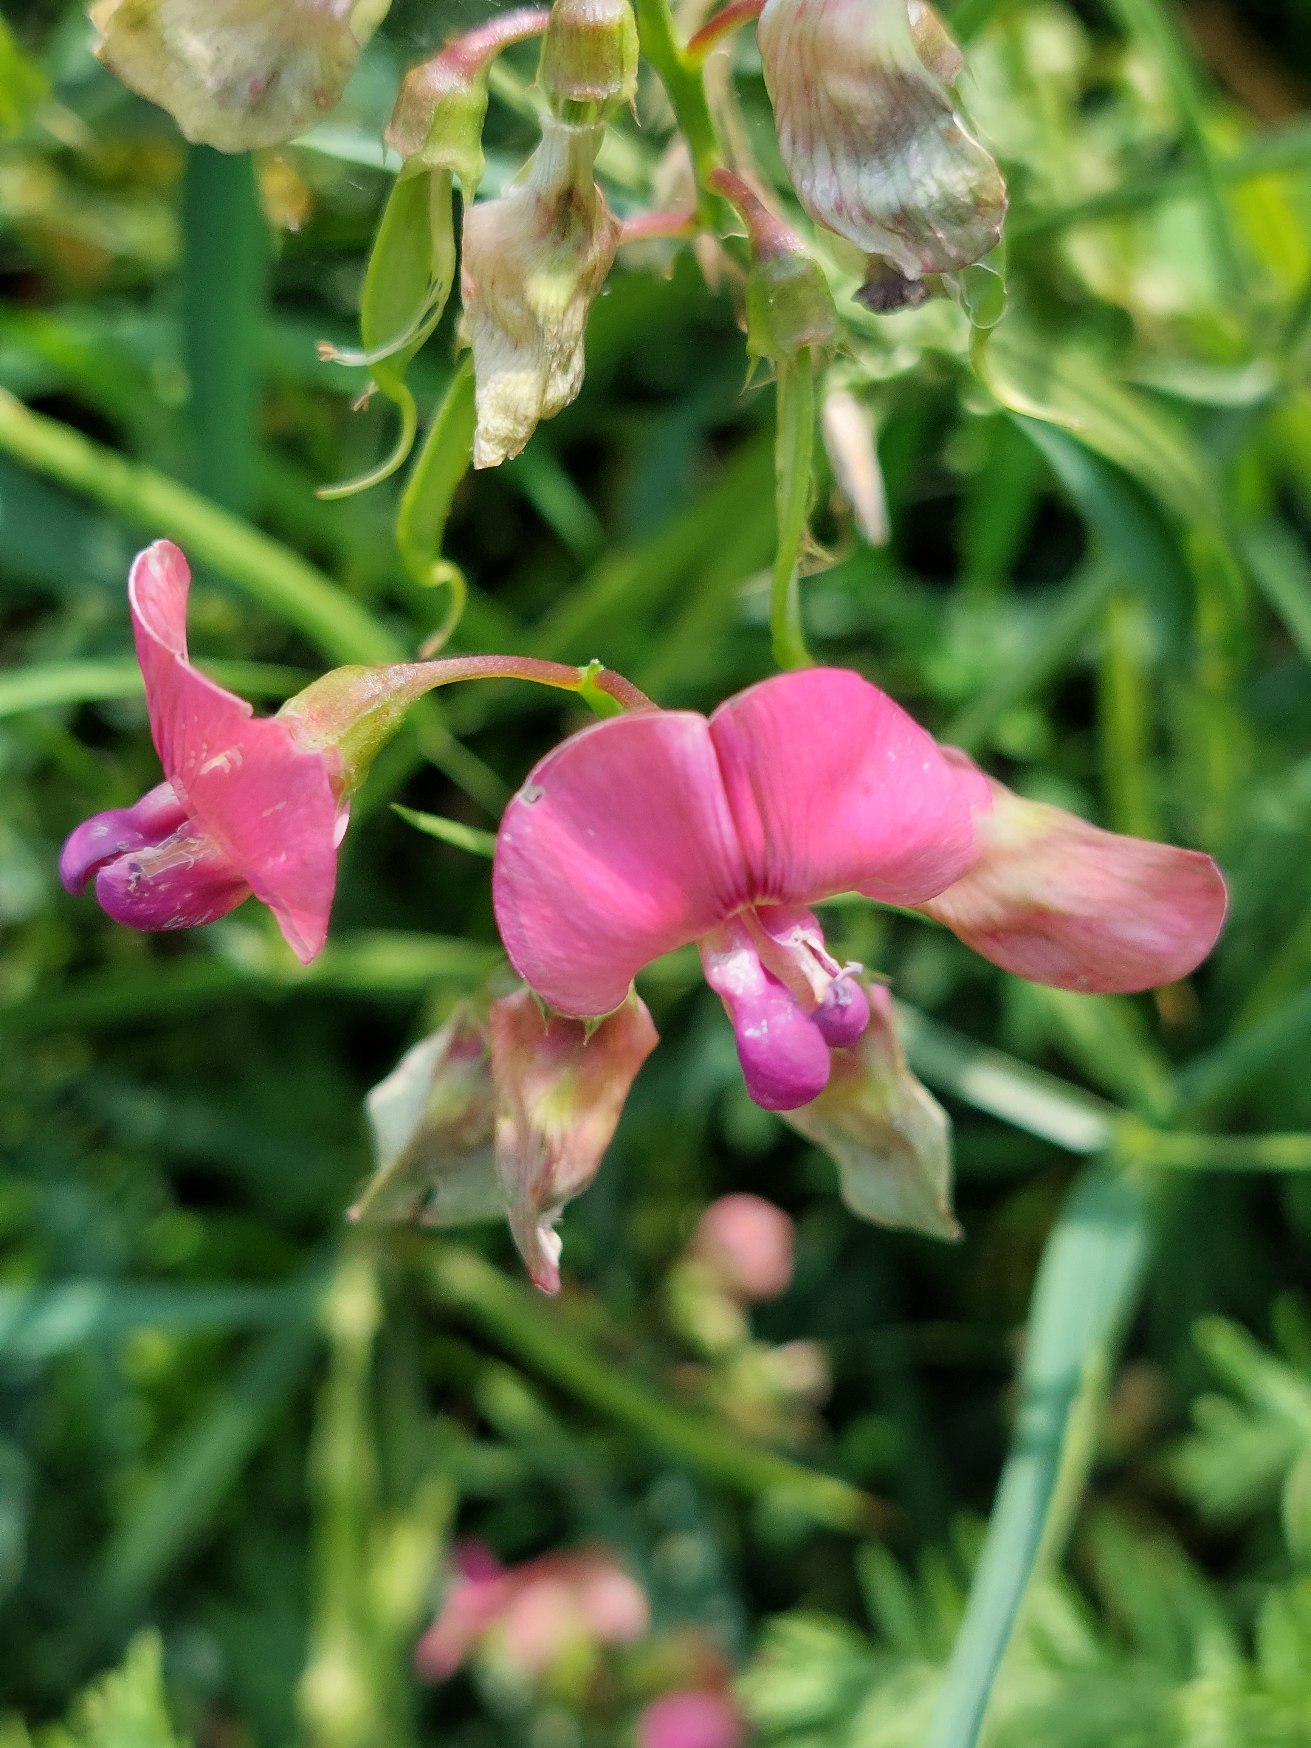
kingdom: Plantae
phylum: Tracheophyta
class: Magnoliopsida
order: Fabales
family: Fabaceae
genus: Lathyrus
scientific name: Lathyrus sylvestris
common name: Skov-fladbælg
